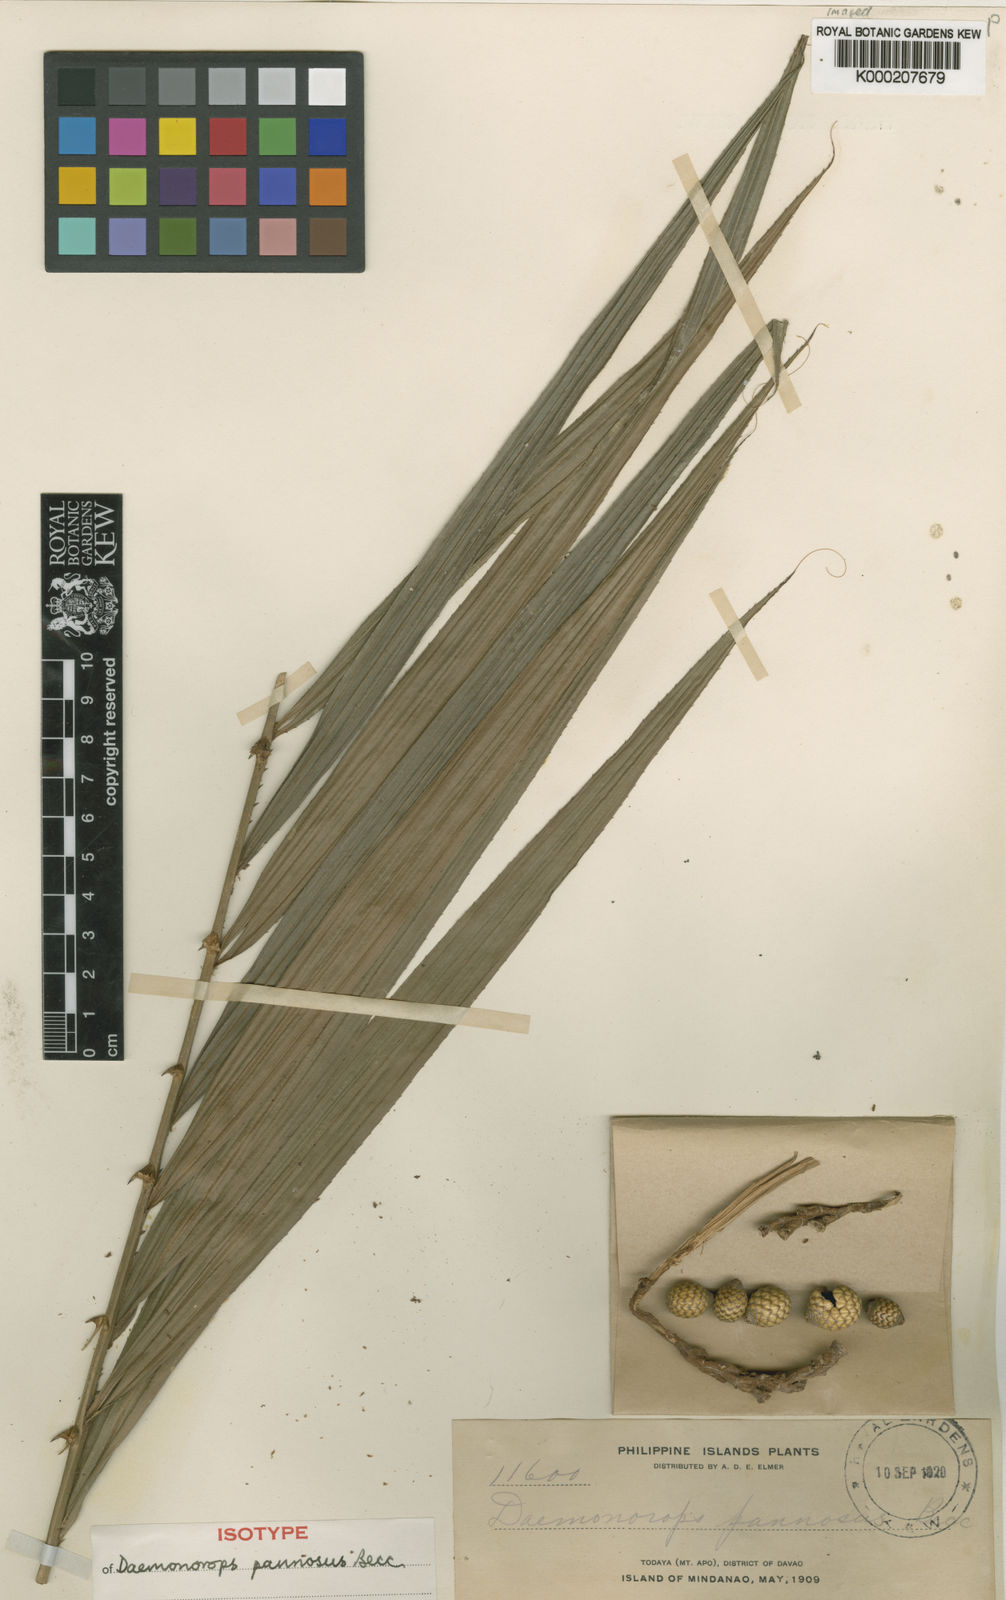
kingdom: Plantae
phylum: Tracheophyta
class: Liliopsida
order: Arecales
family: Arecaceae
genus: Calamus
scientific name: Calamus loherianus
